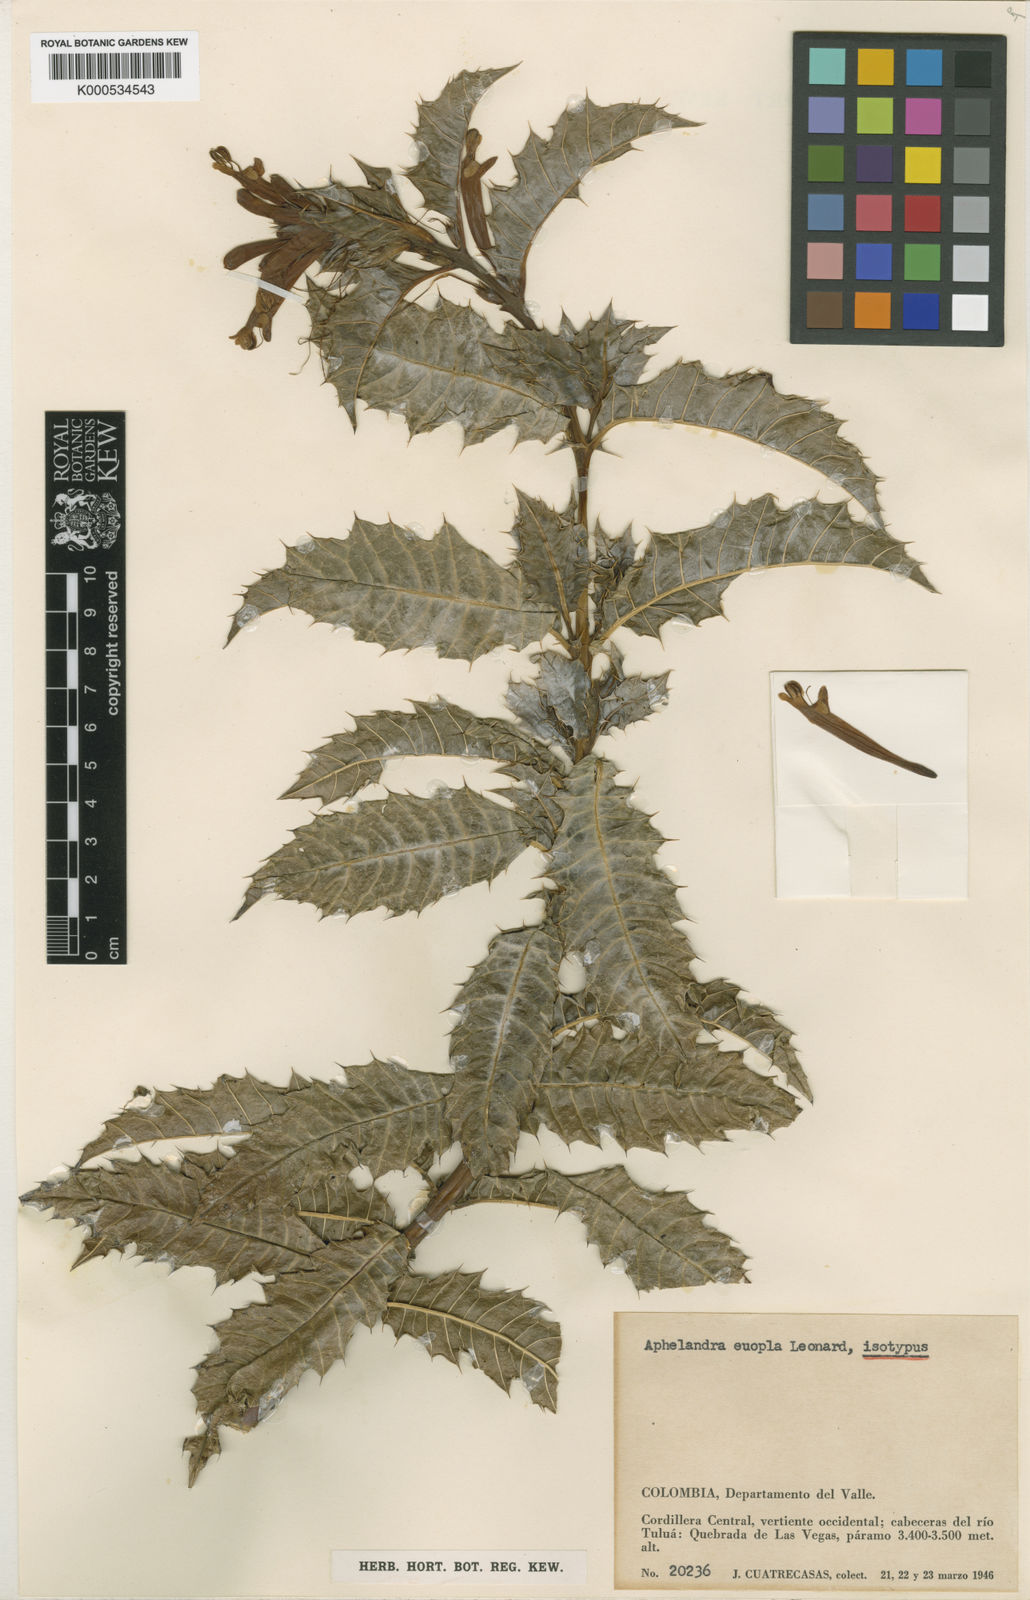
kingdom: Plantae
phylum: Tracheophyta
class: Magnoliopsida
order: Lamiales
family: Acanthaceae
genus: Aphelandra
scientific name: Aphelandra euopla
